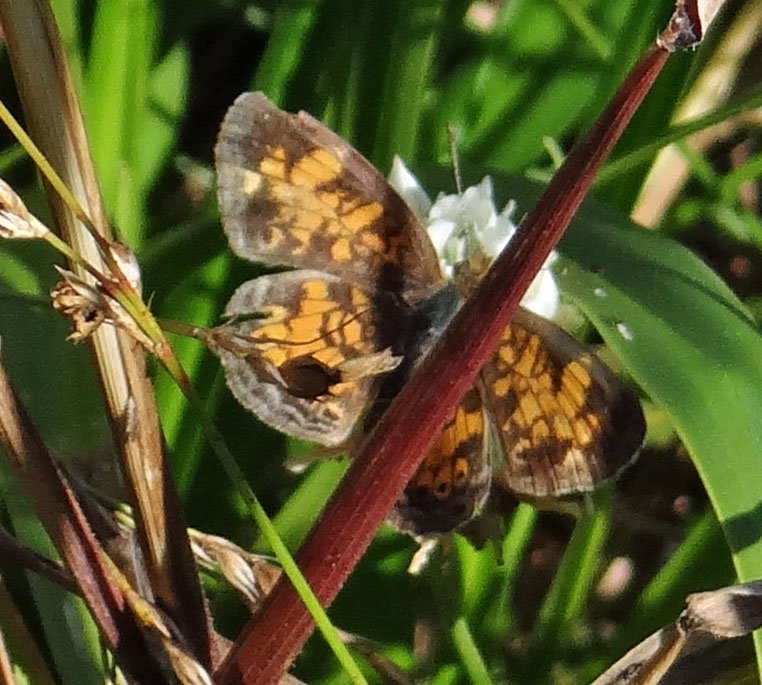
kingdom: Animalia
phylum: Arthropoda
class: Insecta
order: Lepidoptera
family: Nymphalidae
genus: Phyciodes
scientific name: Phyciodes tharos
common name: Pearl Crescent
